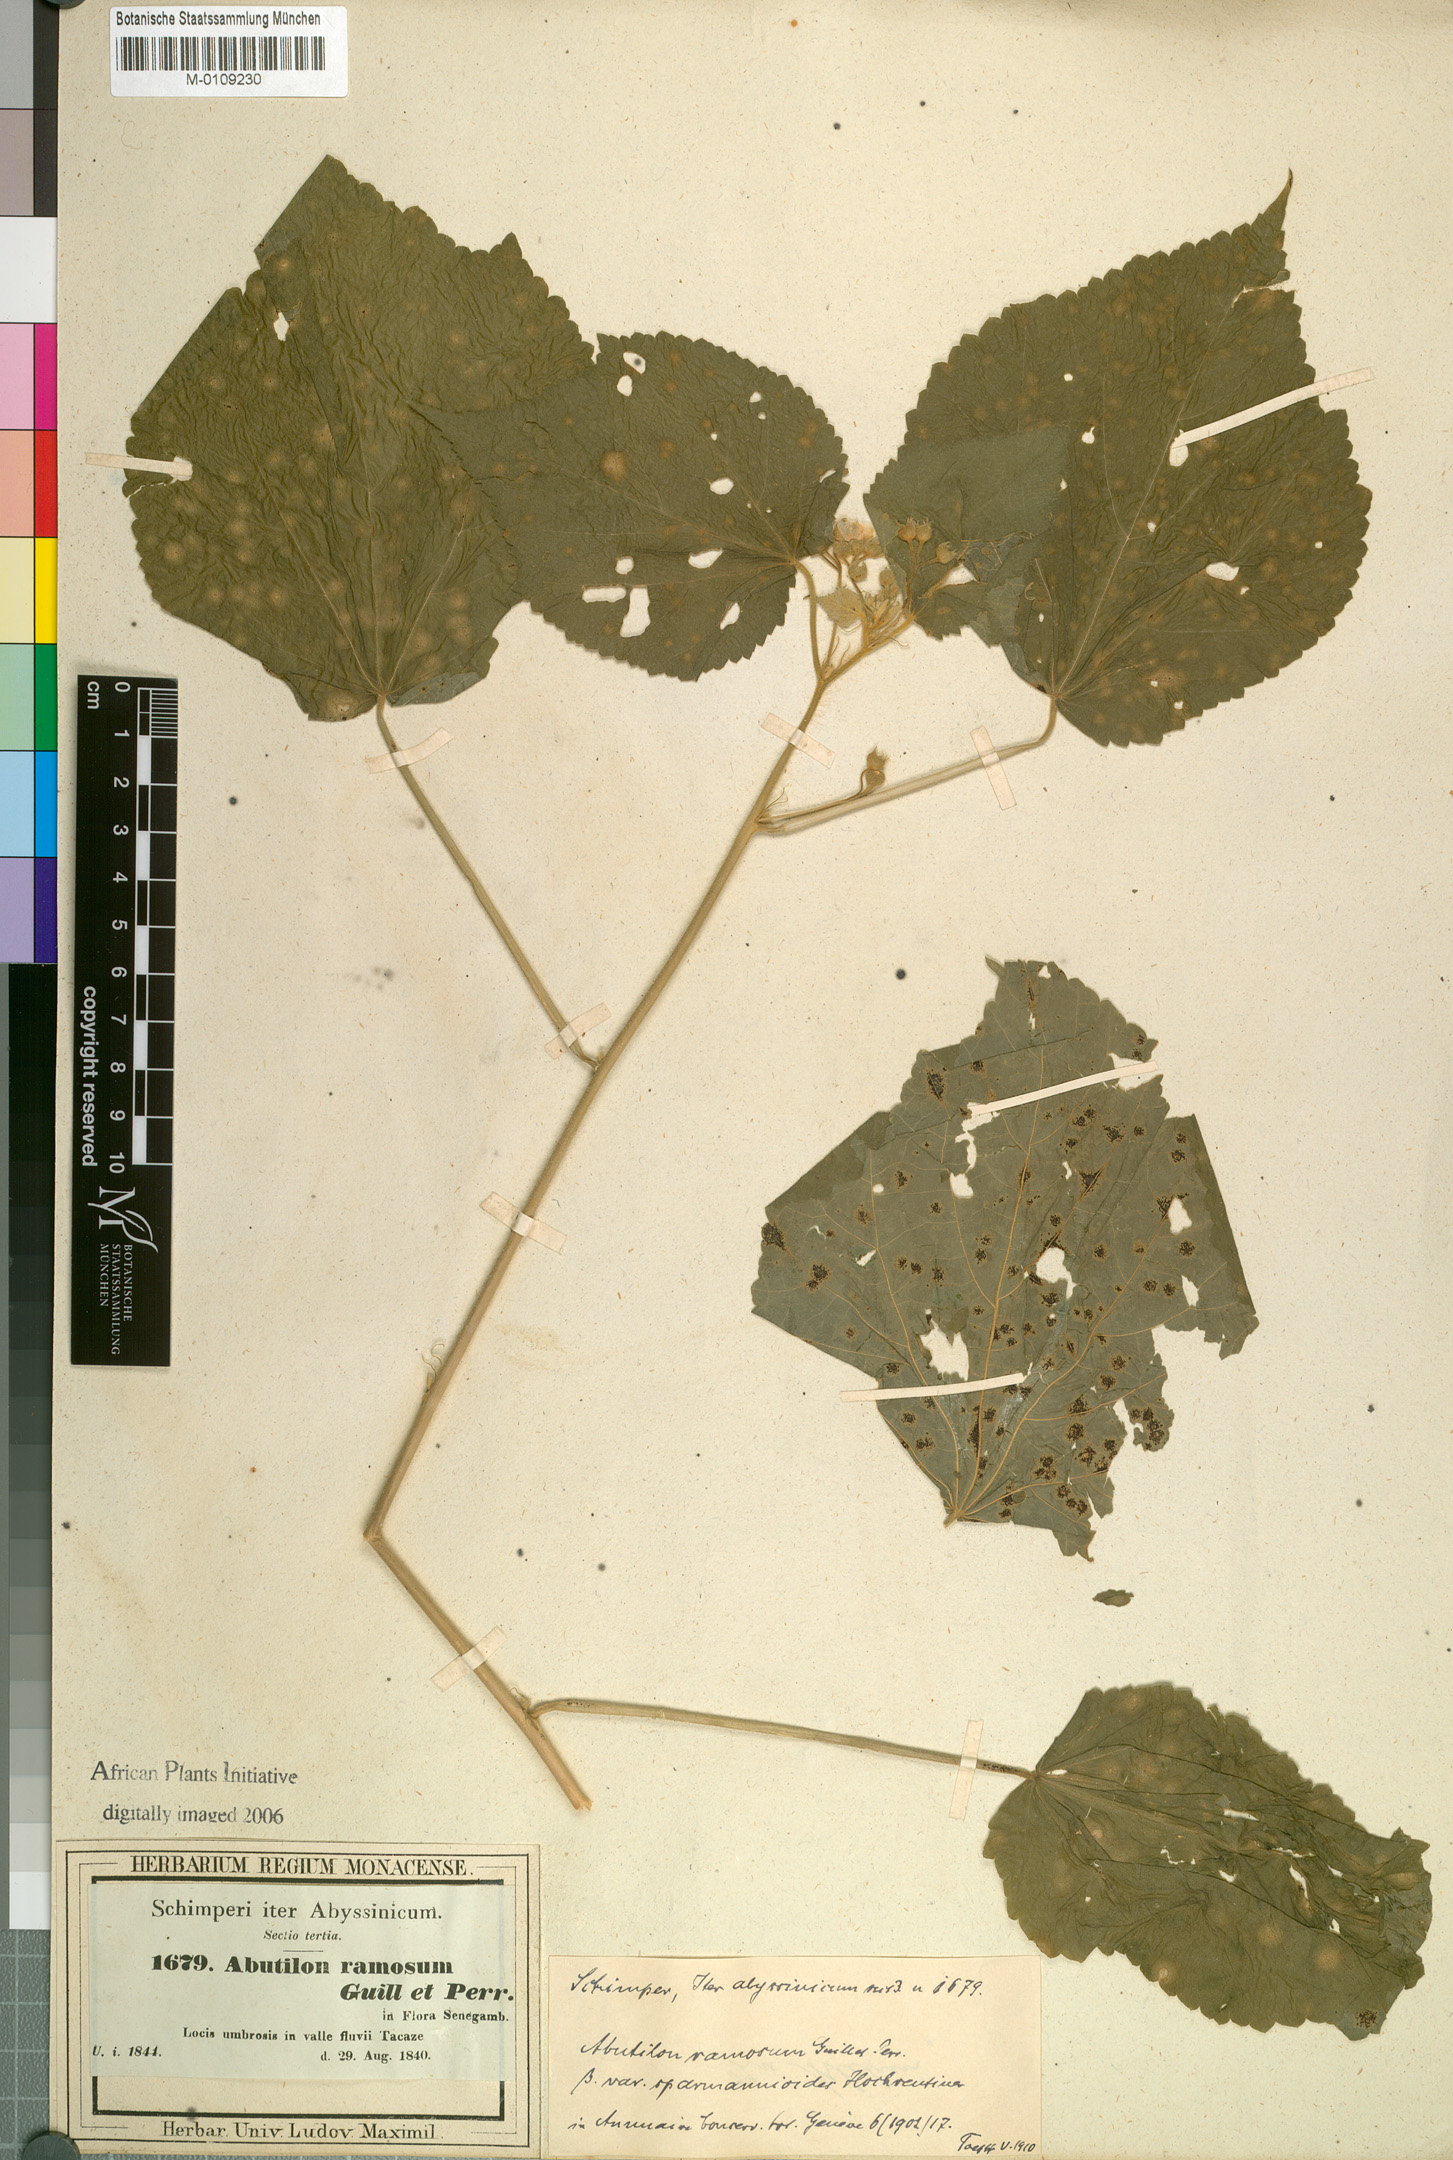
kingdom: Plantae
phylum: Tracheophyta
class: Magnoliopsida
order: Malvales
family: Malvaceae
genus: Abutilon
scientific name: Abutilon ramosum
